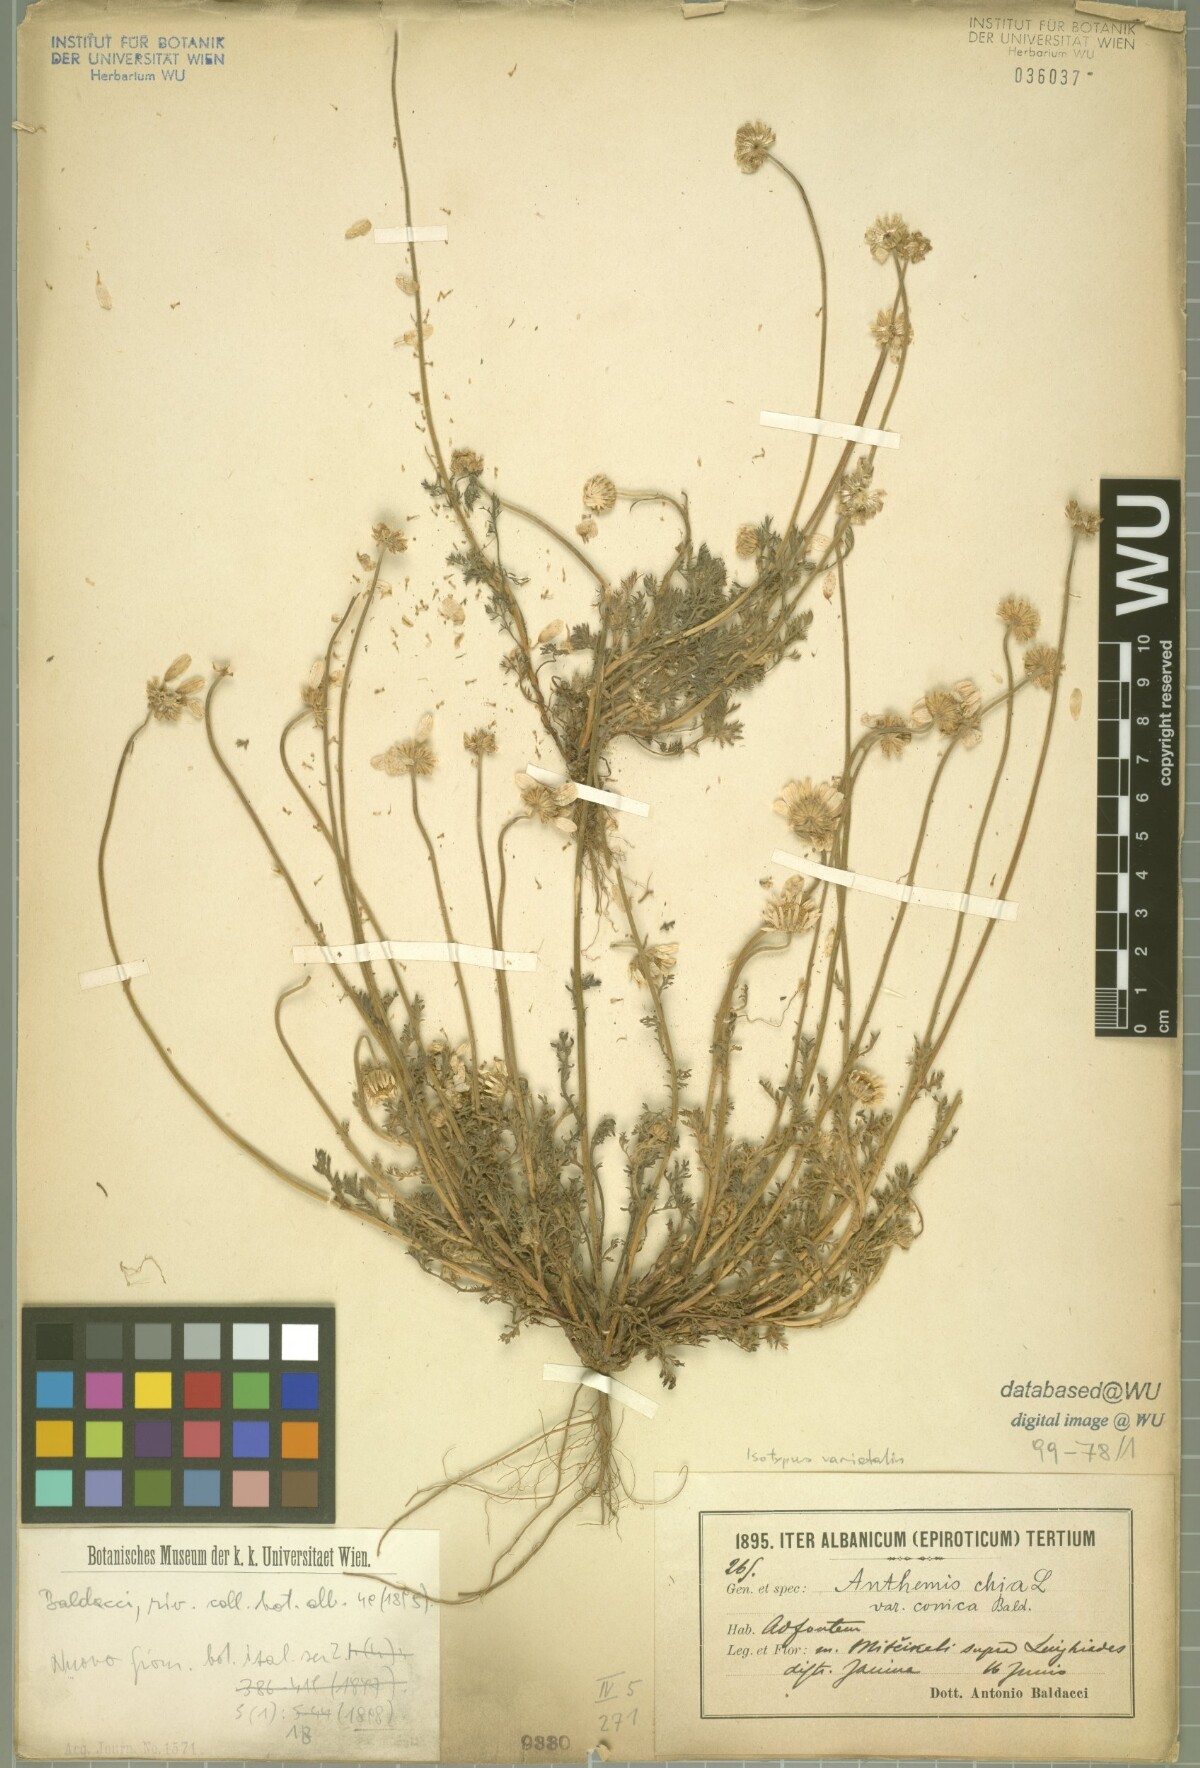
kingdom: Plantae
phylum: Tracheophyta
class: Magnoliopsida
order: Asterales
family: Asteraceae
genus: Anthemis
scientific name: Anthemis chia
